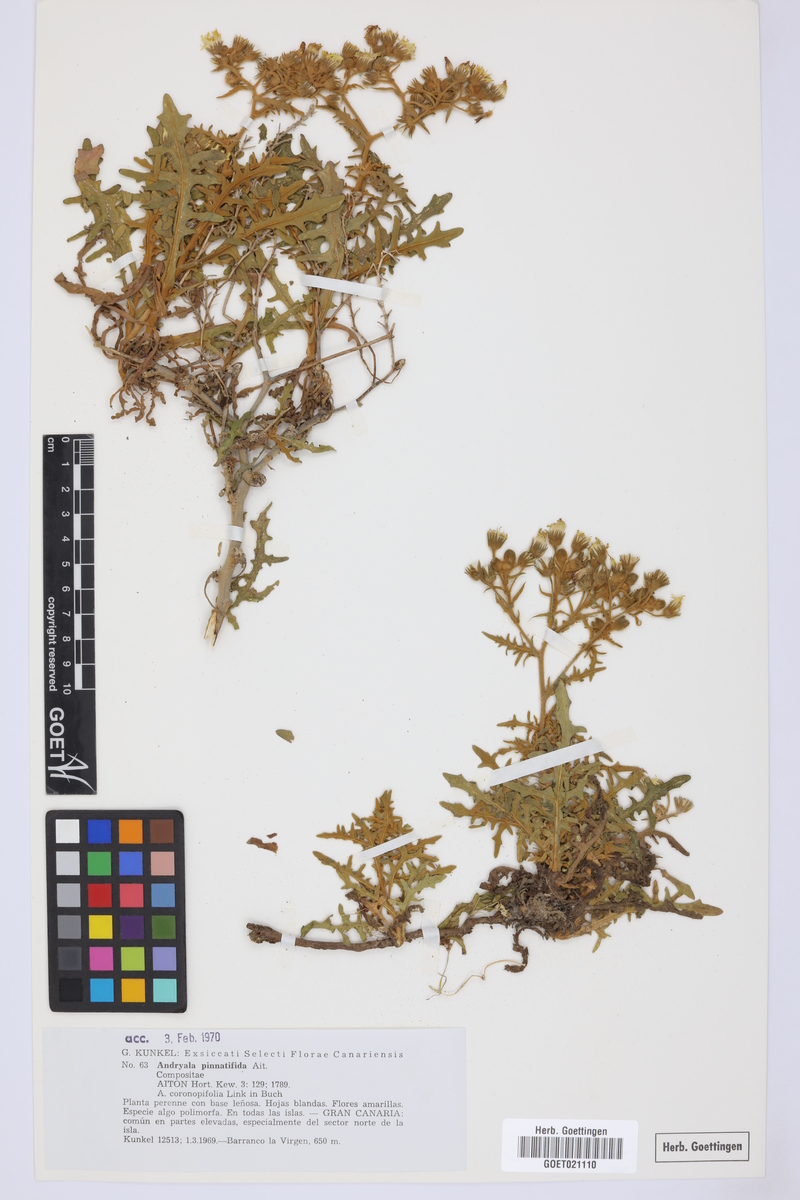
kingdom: Plantae
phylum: Tracheophyta
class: Magnoliopsida
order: Asterales
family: Asteraceae
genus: Andryala
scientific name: Andryala pinnatifida
